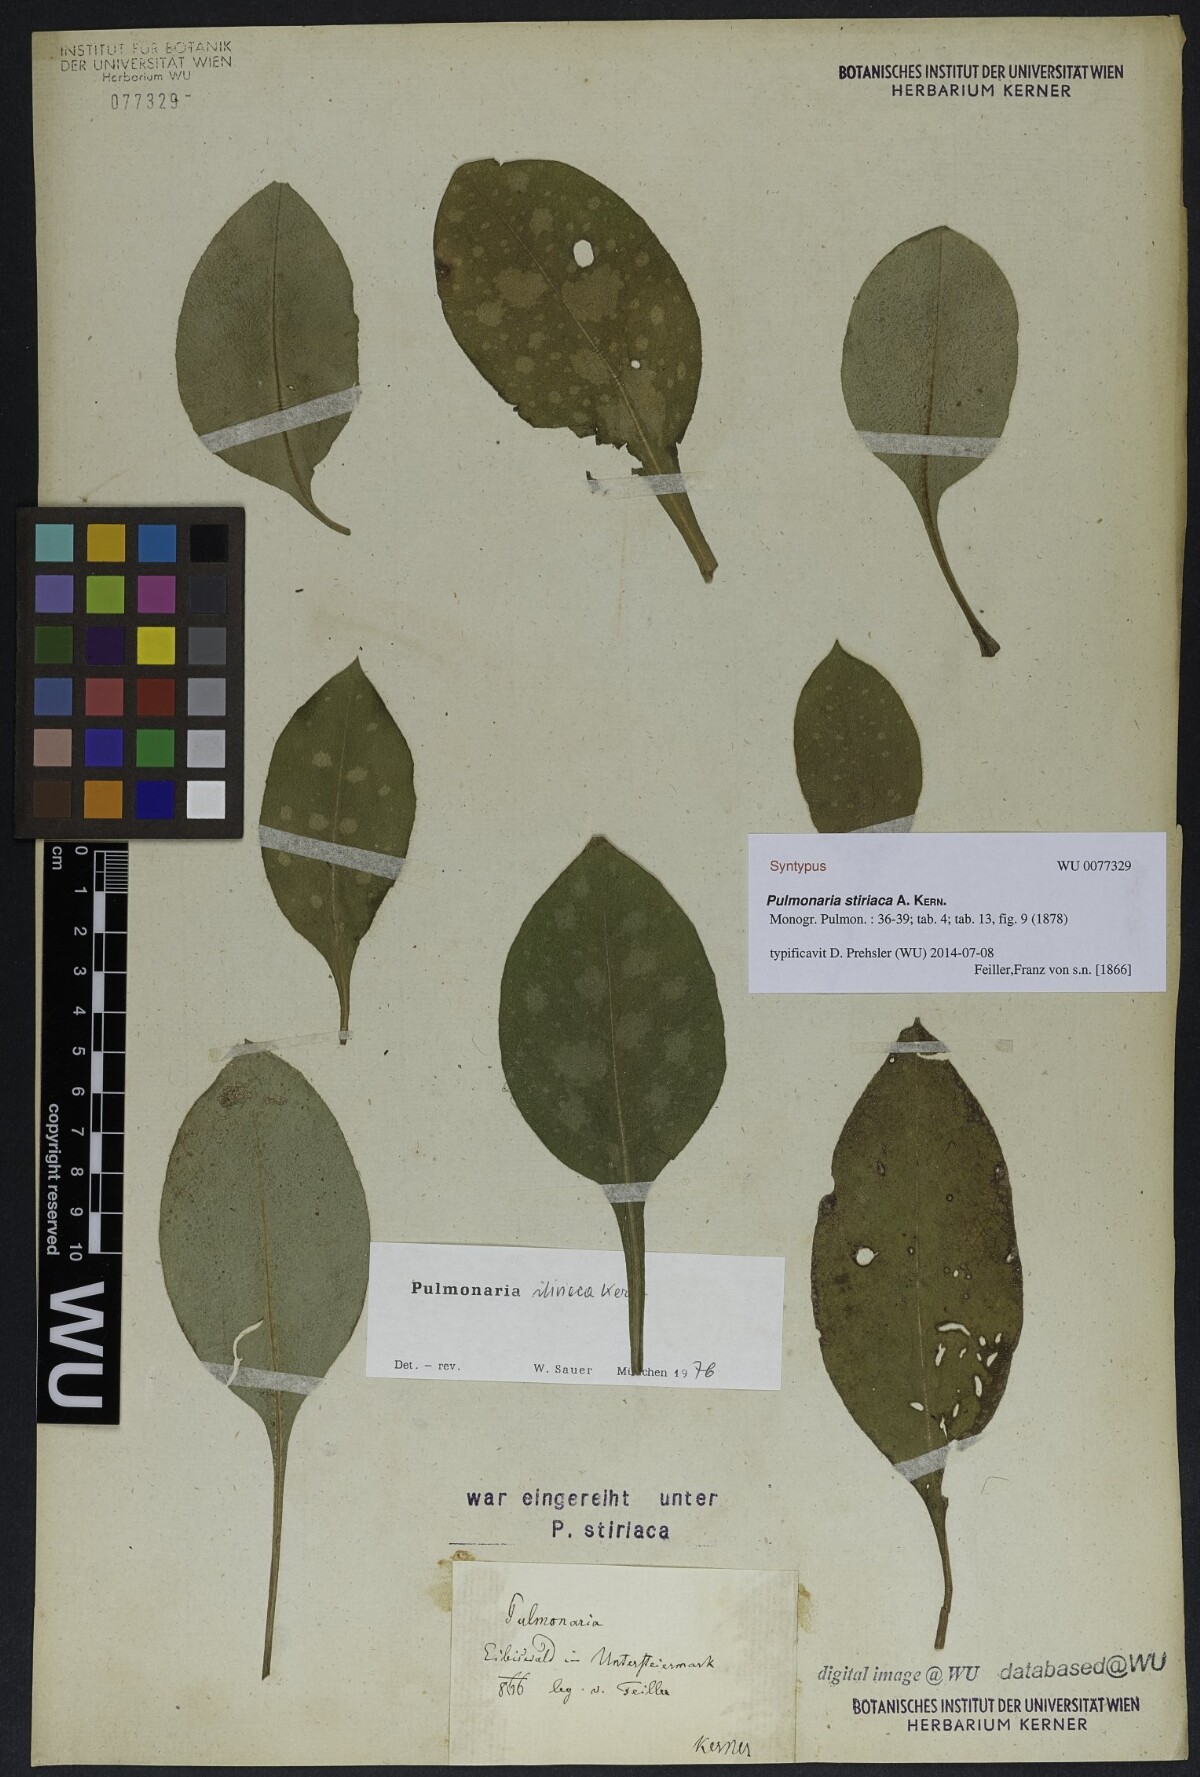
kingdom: Plantae
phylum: Tracheophyta
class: Magnoliopsida
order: Boraginales
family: Boraginaceae
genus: Pulmonaria
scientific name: Pulmonaria stiriaca
